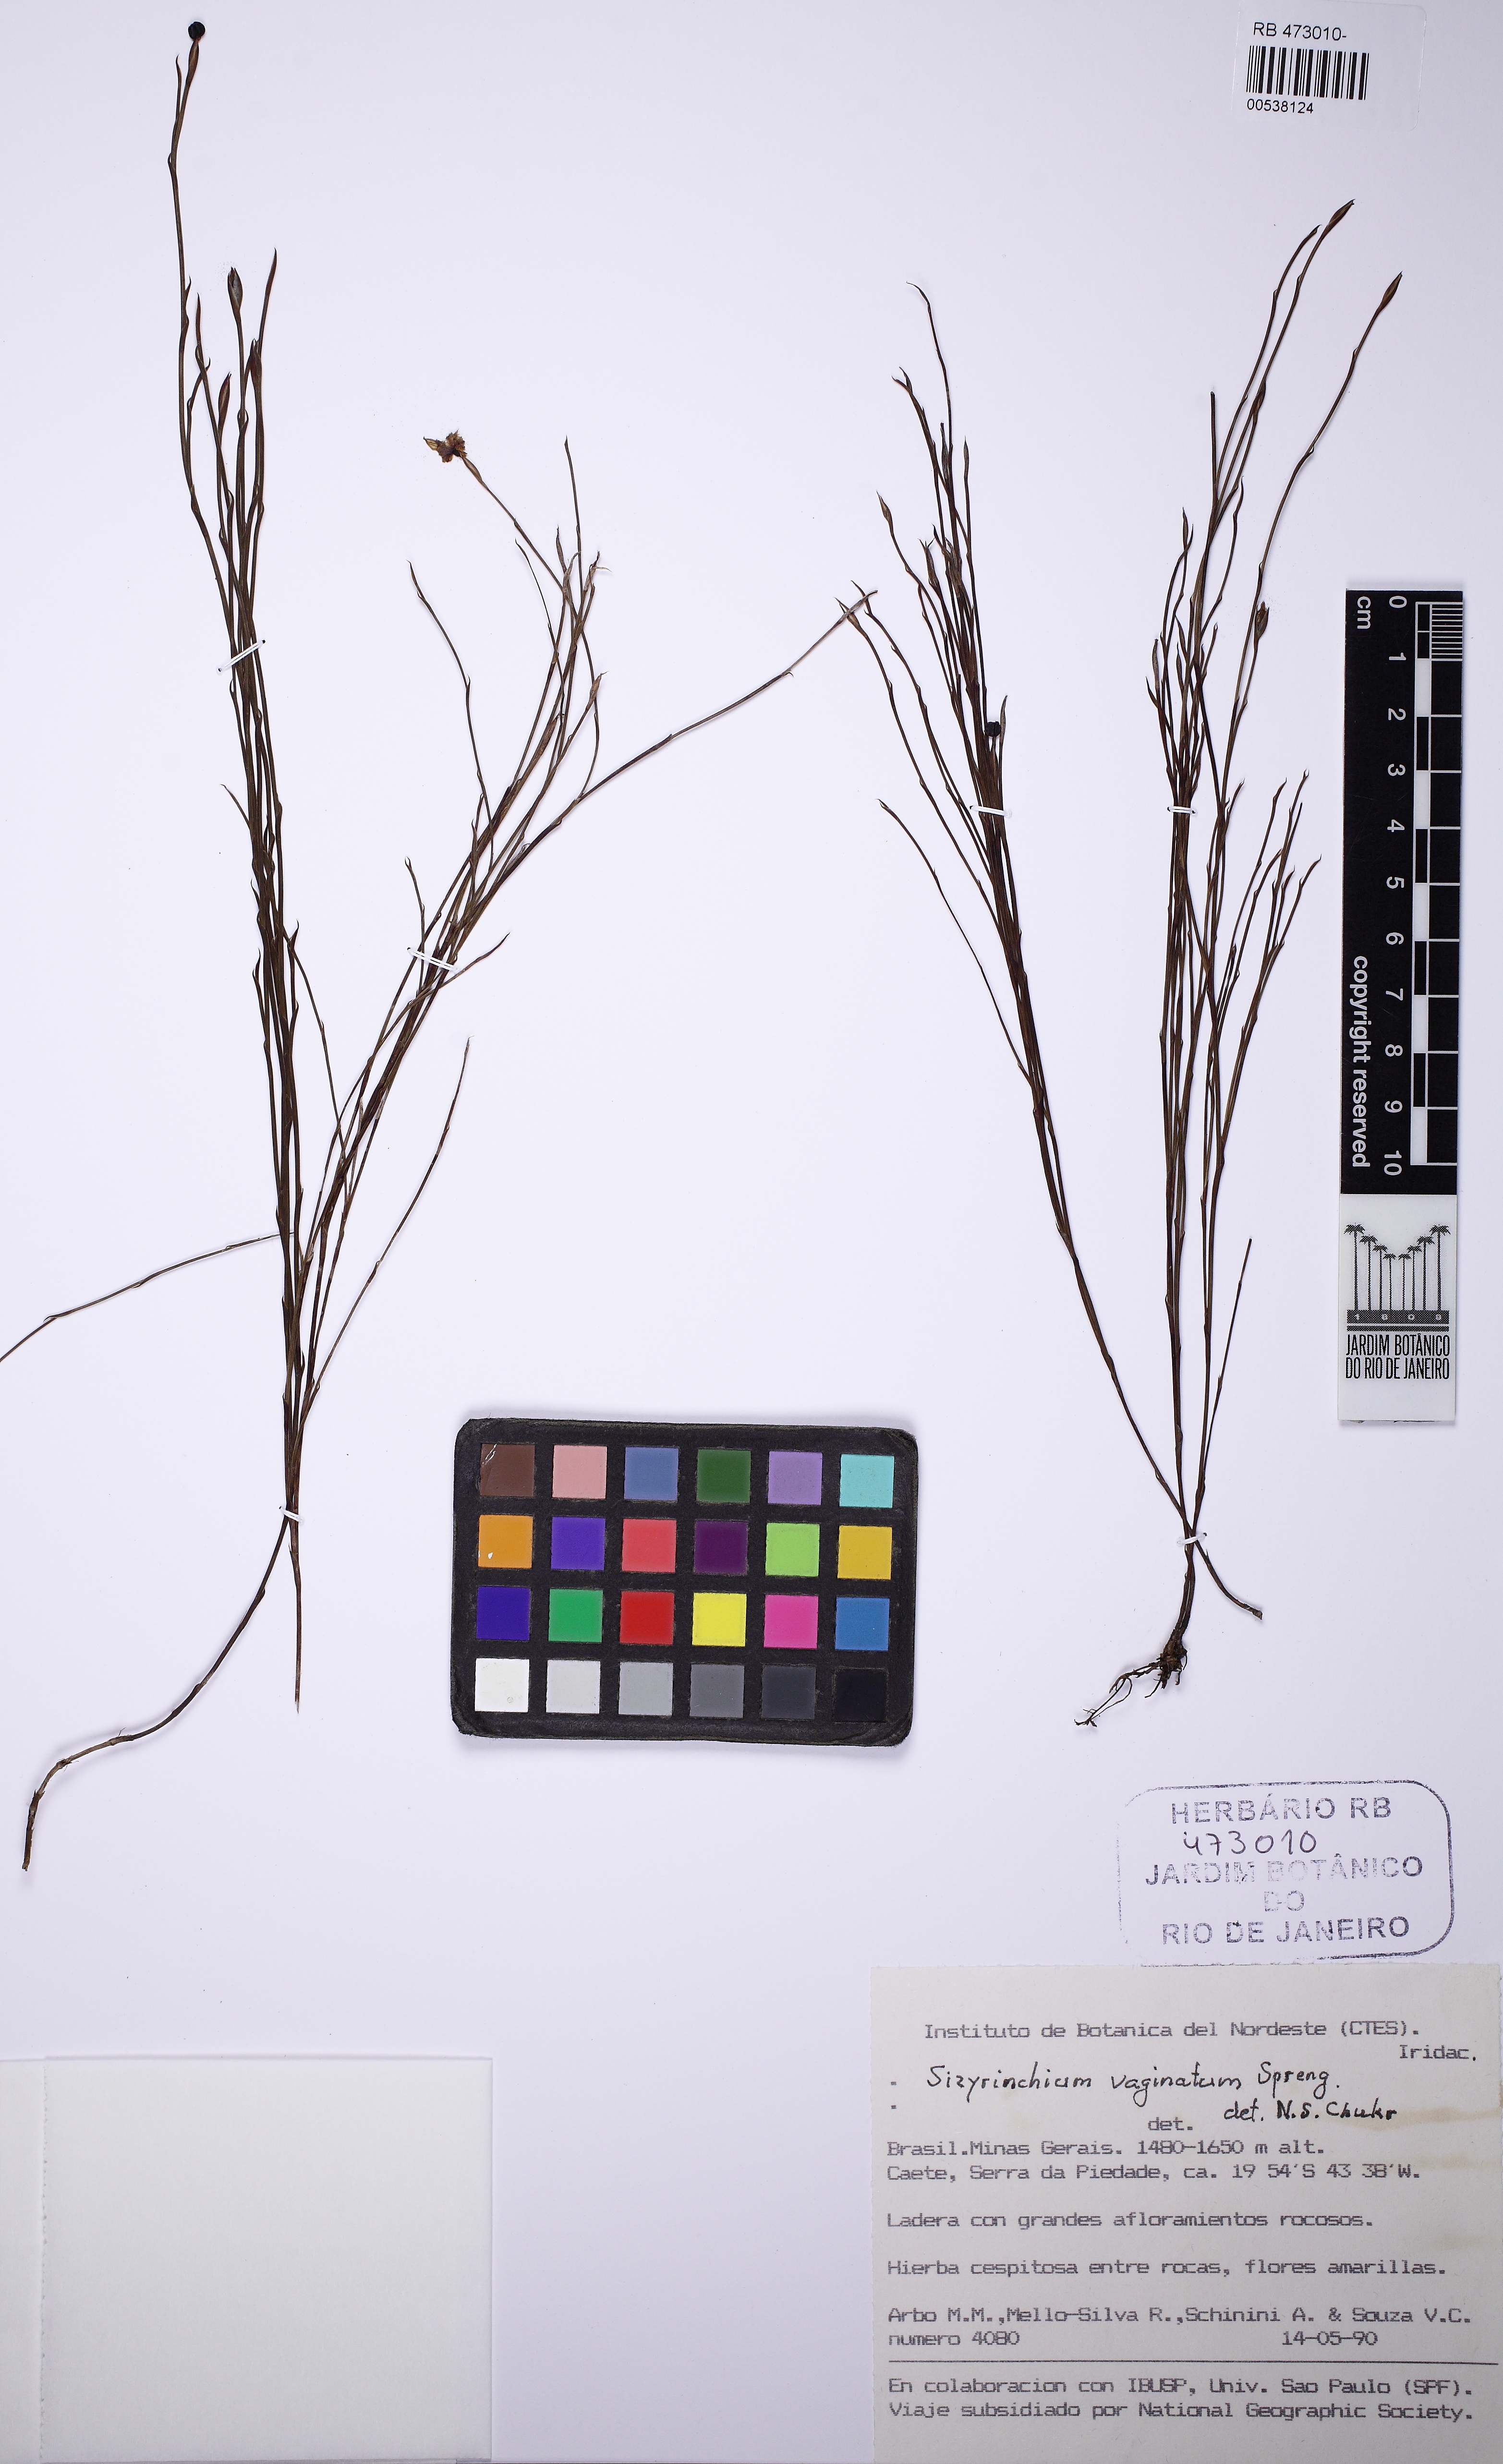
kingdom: Plantae
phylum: Tracheophyta
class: Liliopsida
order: Asparagales
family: Iridaceae
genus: Sisyrinchium
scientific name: Sisyrinchium vaginatum
